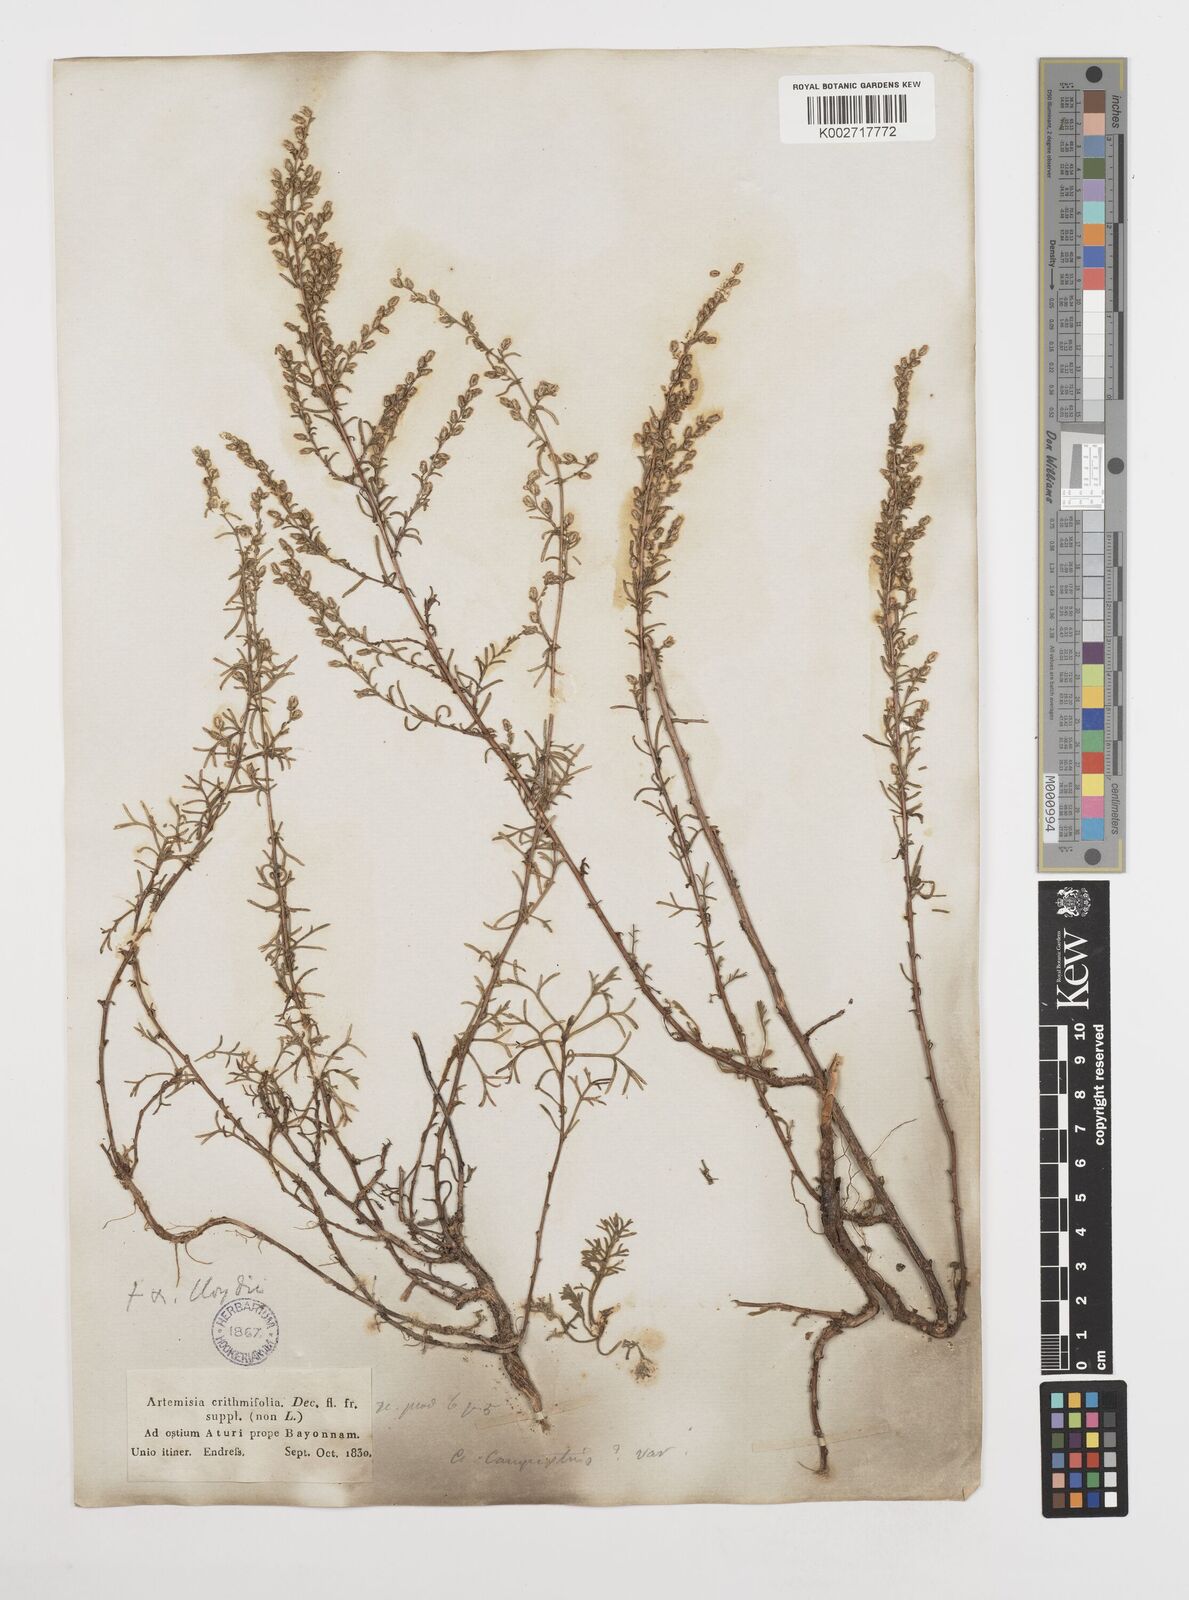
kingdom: Plantae
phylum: Tracheophyta
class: Magnoliopsida
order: Asterales
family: Asteraceae
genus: Artemisia
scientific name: Artemisia campestris
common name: Field wormwood
